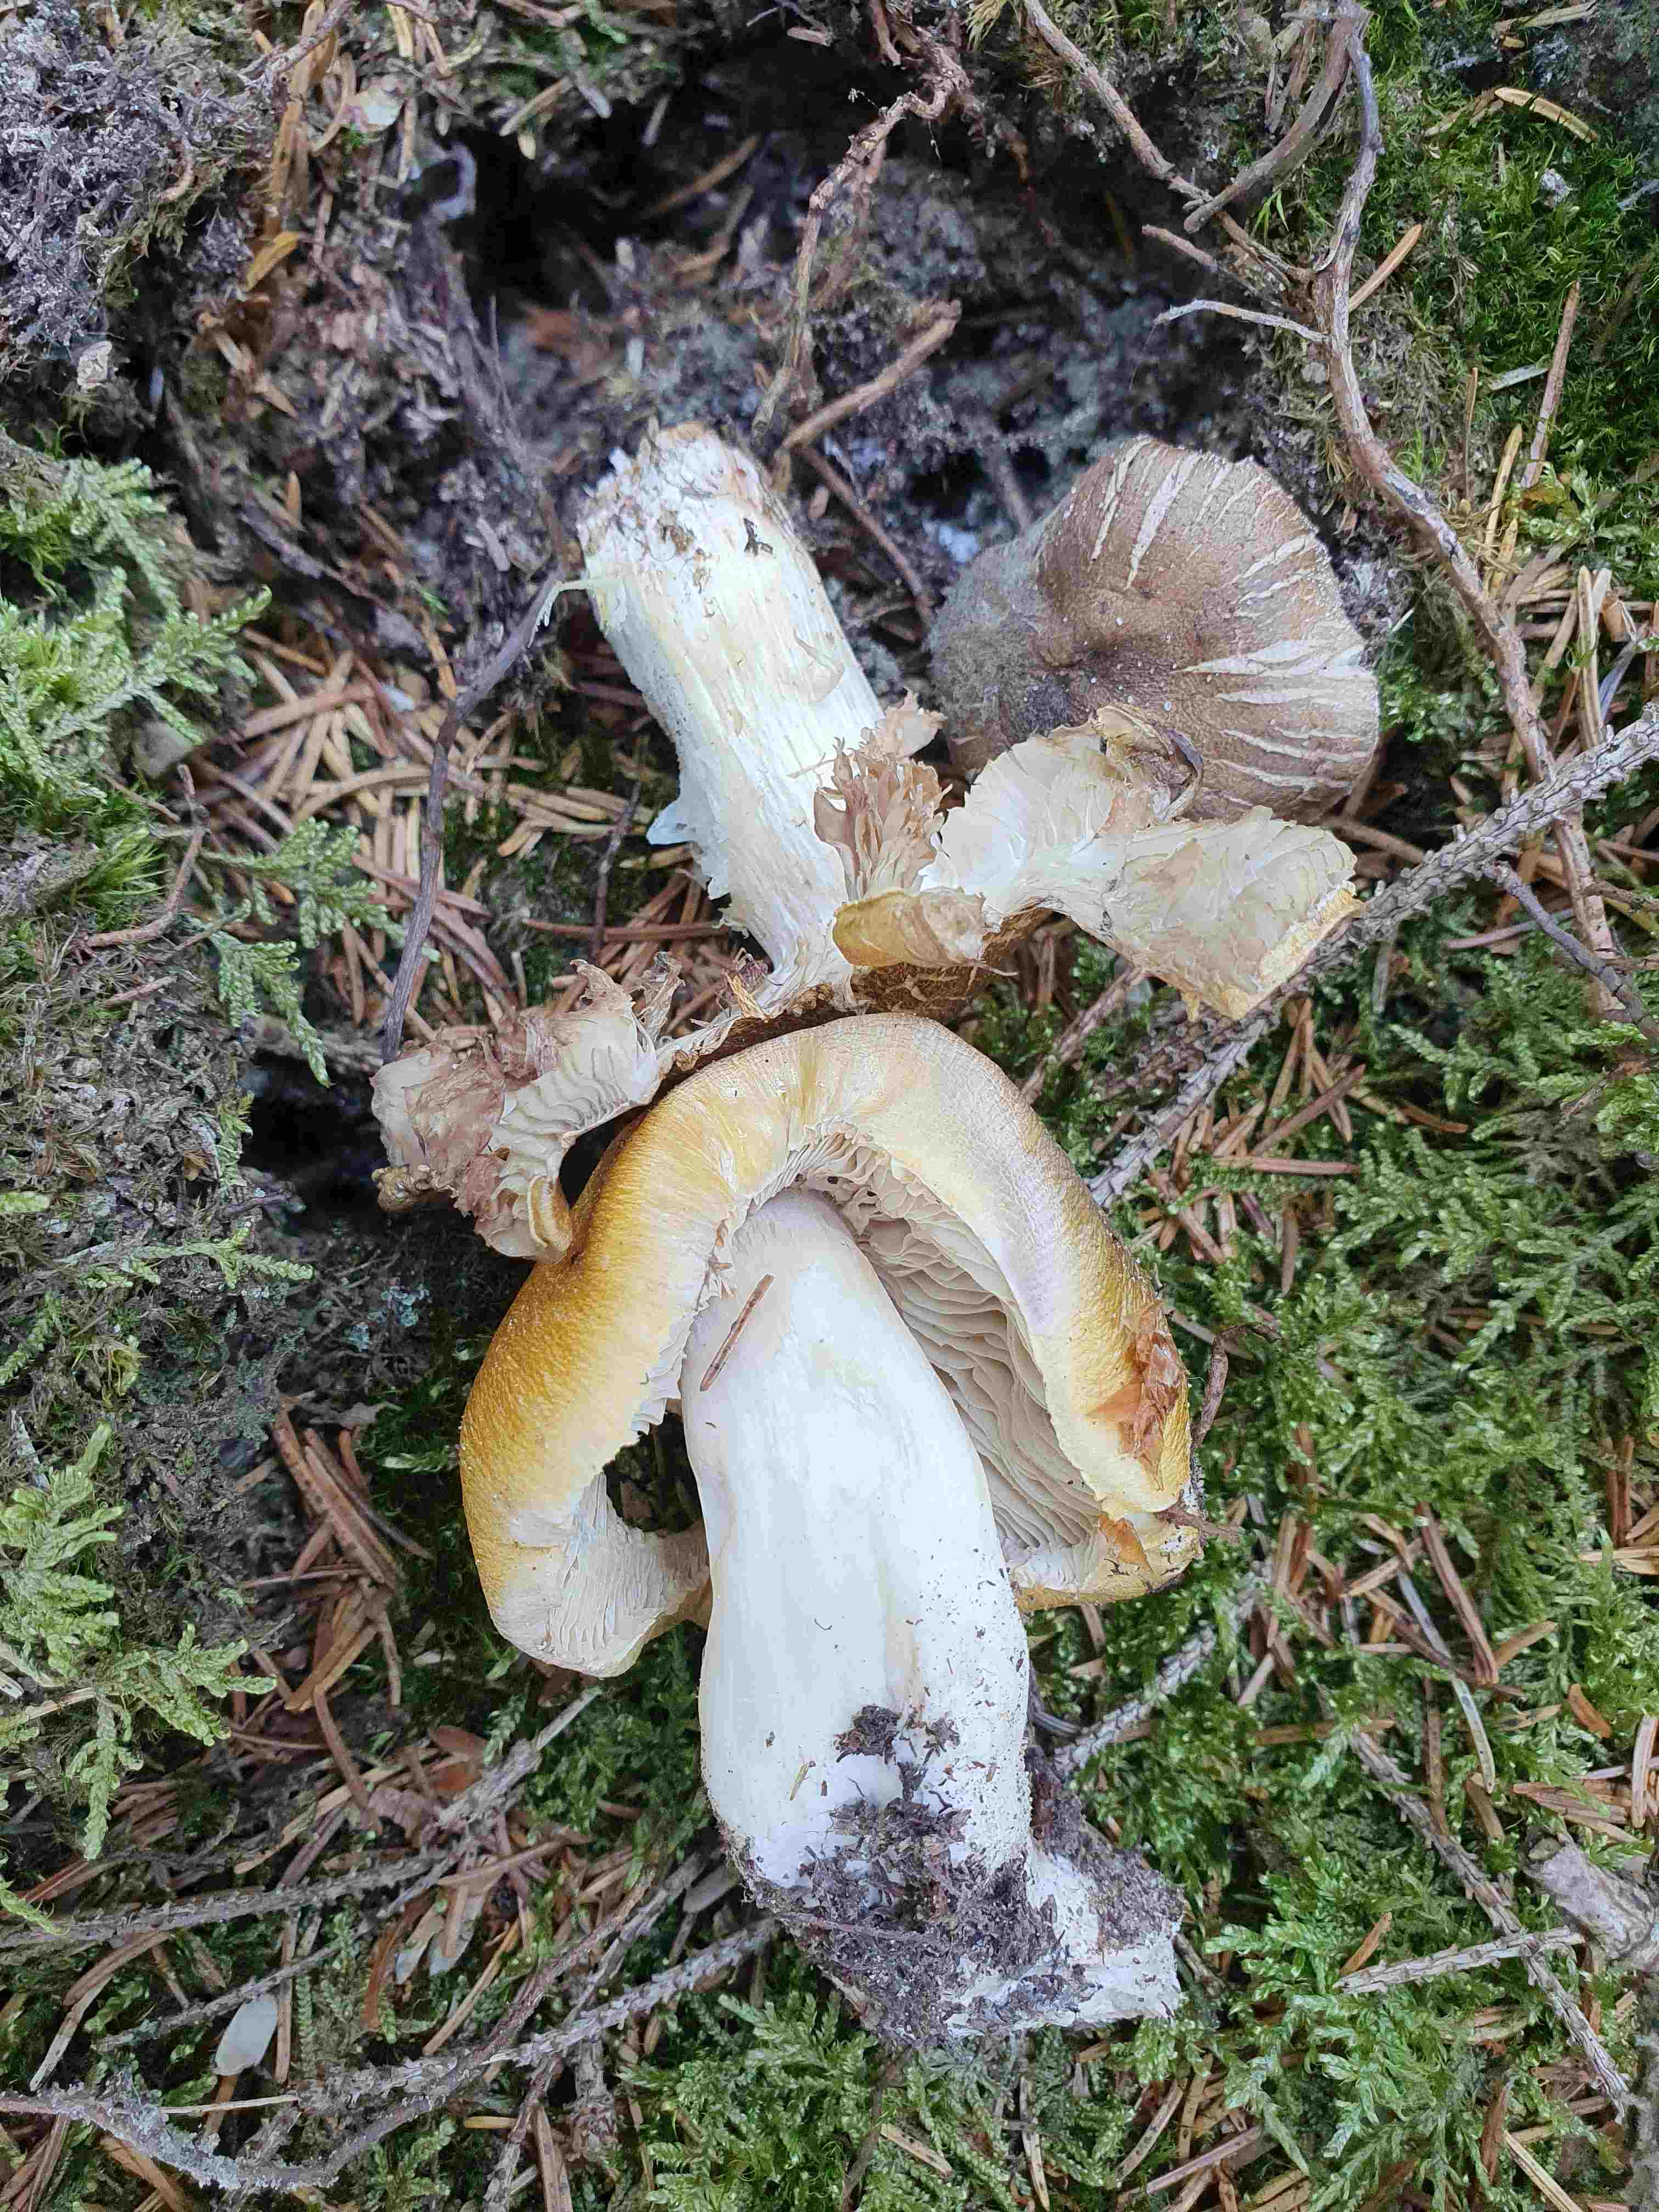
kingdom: Fungi
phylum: Basidiomycota
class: Agaricomycetes
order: Agaricales
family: Tricholomataceae
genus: Tricholoma
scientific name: Tricholoma arvernense
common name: kantet ridderhat
